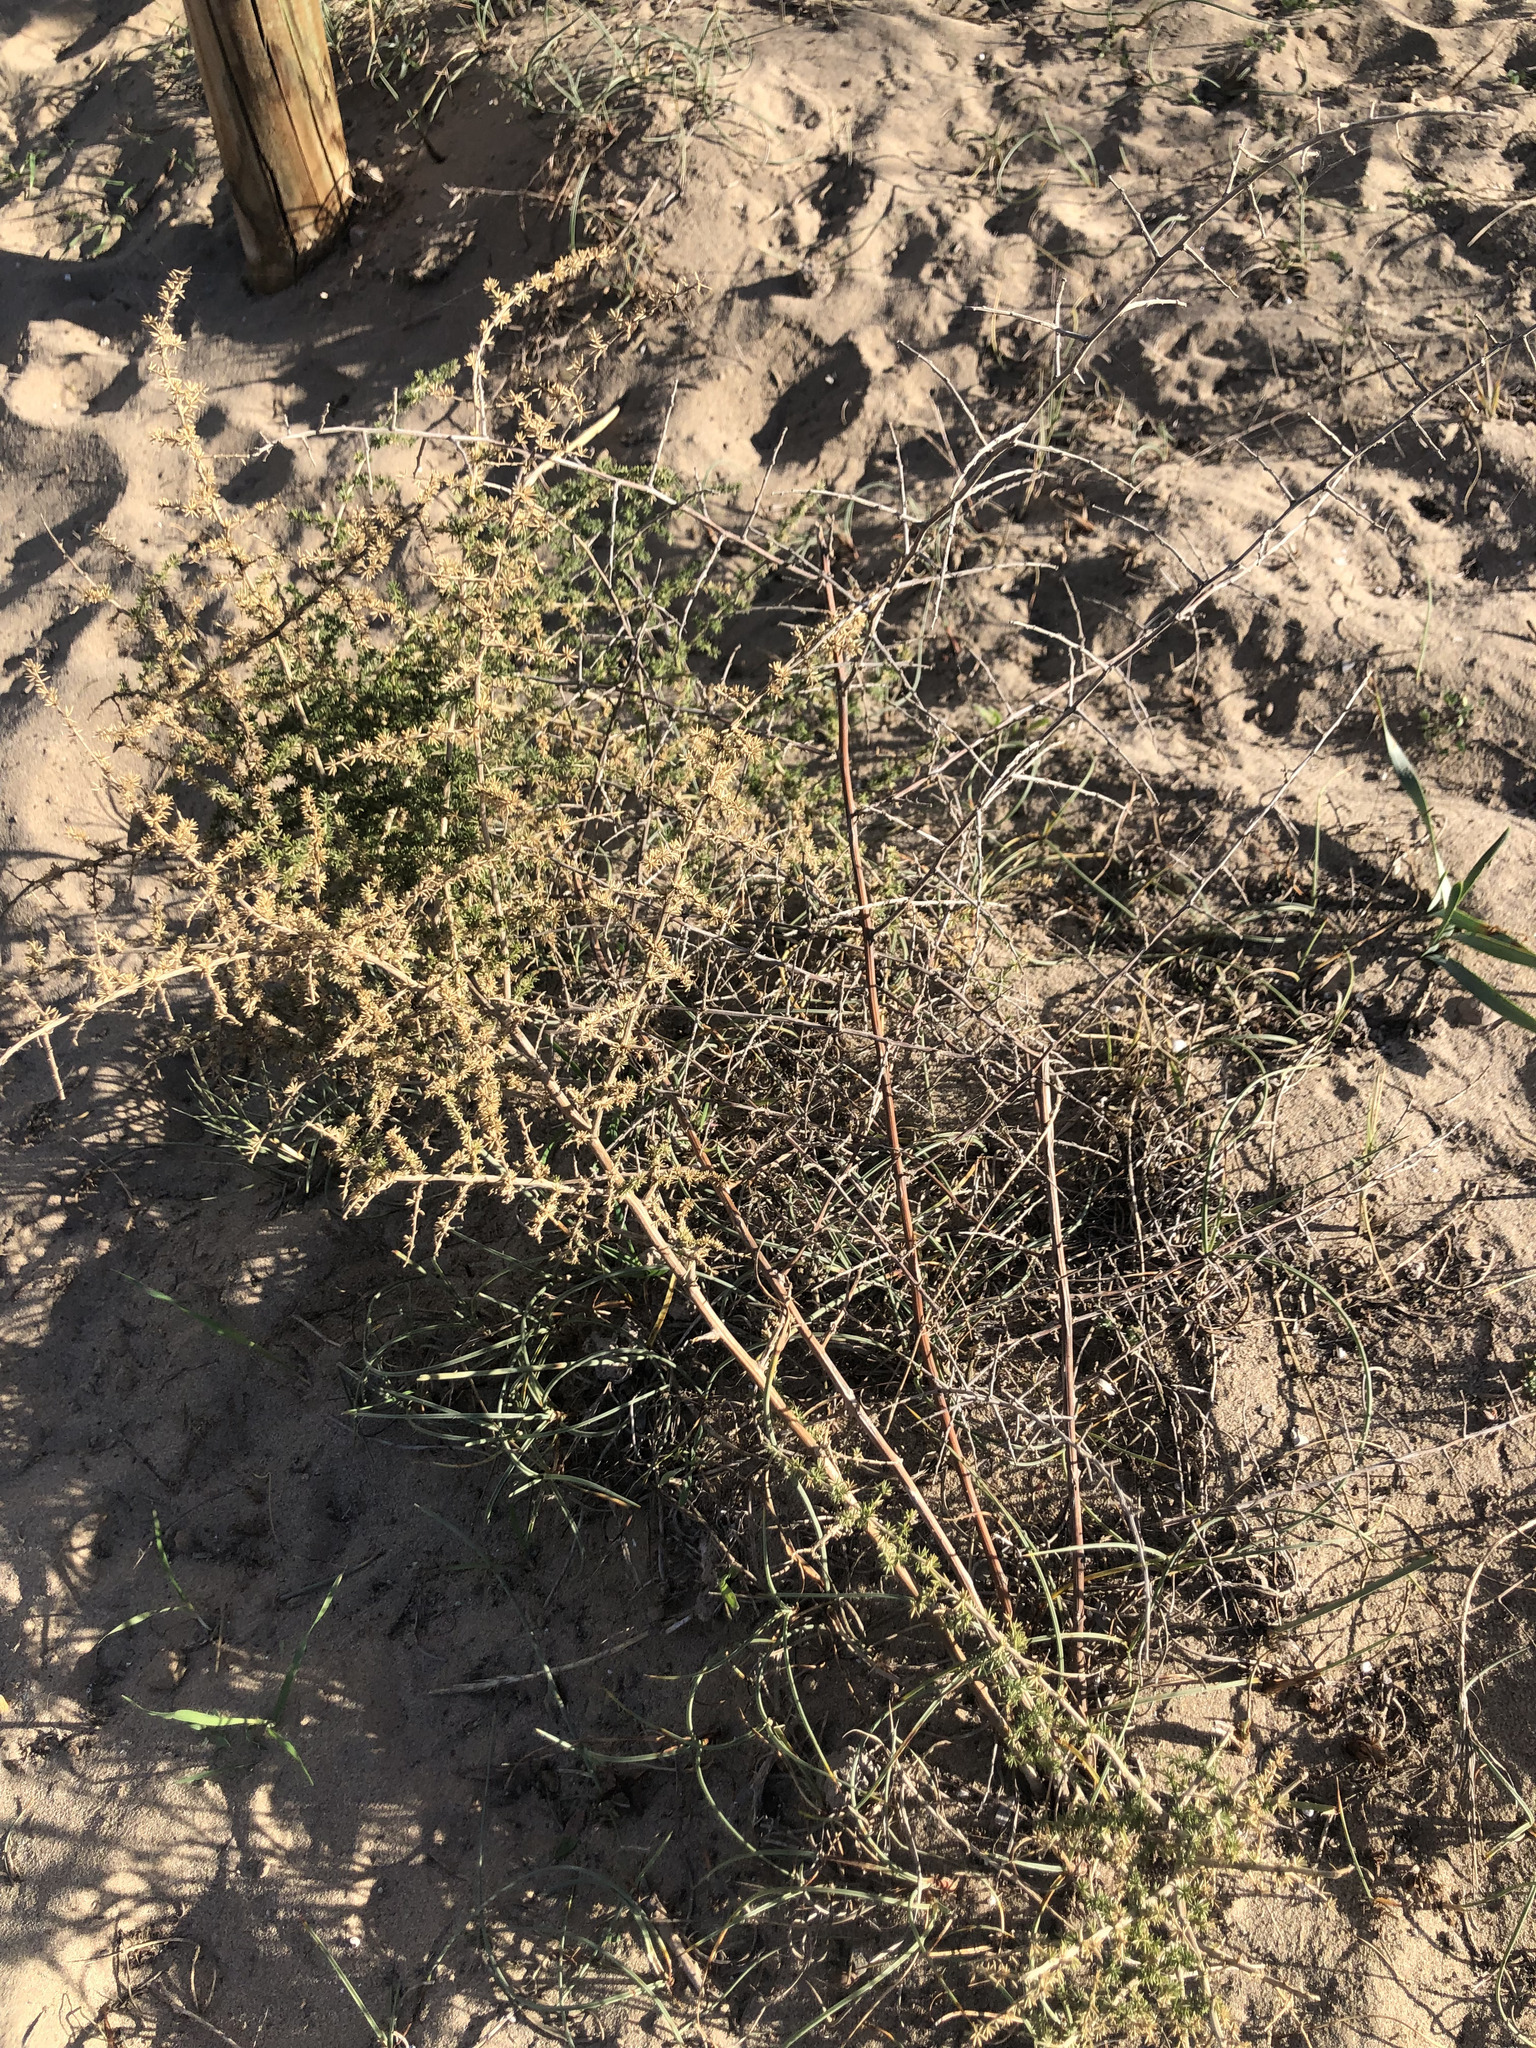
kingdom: Plantae
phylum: Tracheophyta
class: Liliopsida
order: Asparagales
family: Asparagaceae
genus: Asparagus
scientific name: Asparagus acutifolius
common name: Wild asparagus
